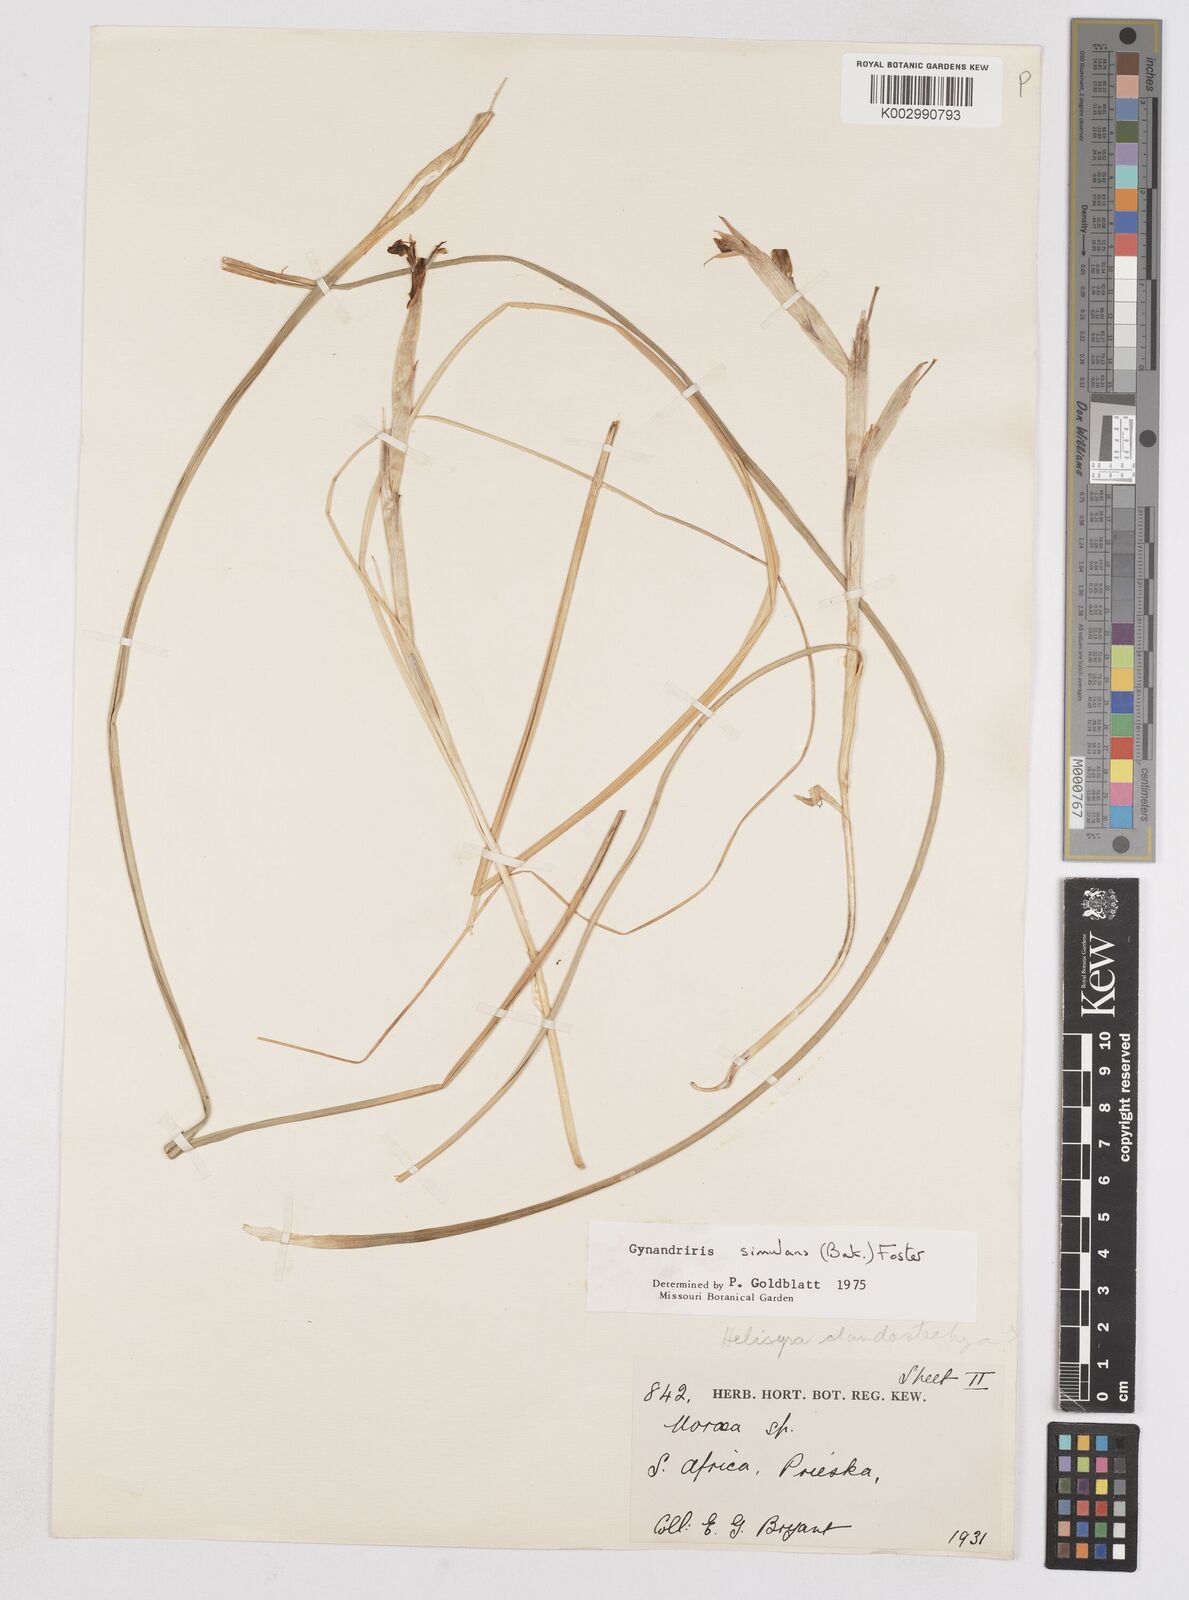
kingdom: Plantae
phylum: Tracheophyta
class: Liliopsida
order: Asparagales
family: Iridaceae
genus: Moraea
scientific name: Moraea simulans
